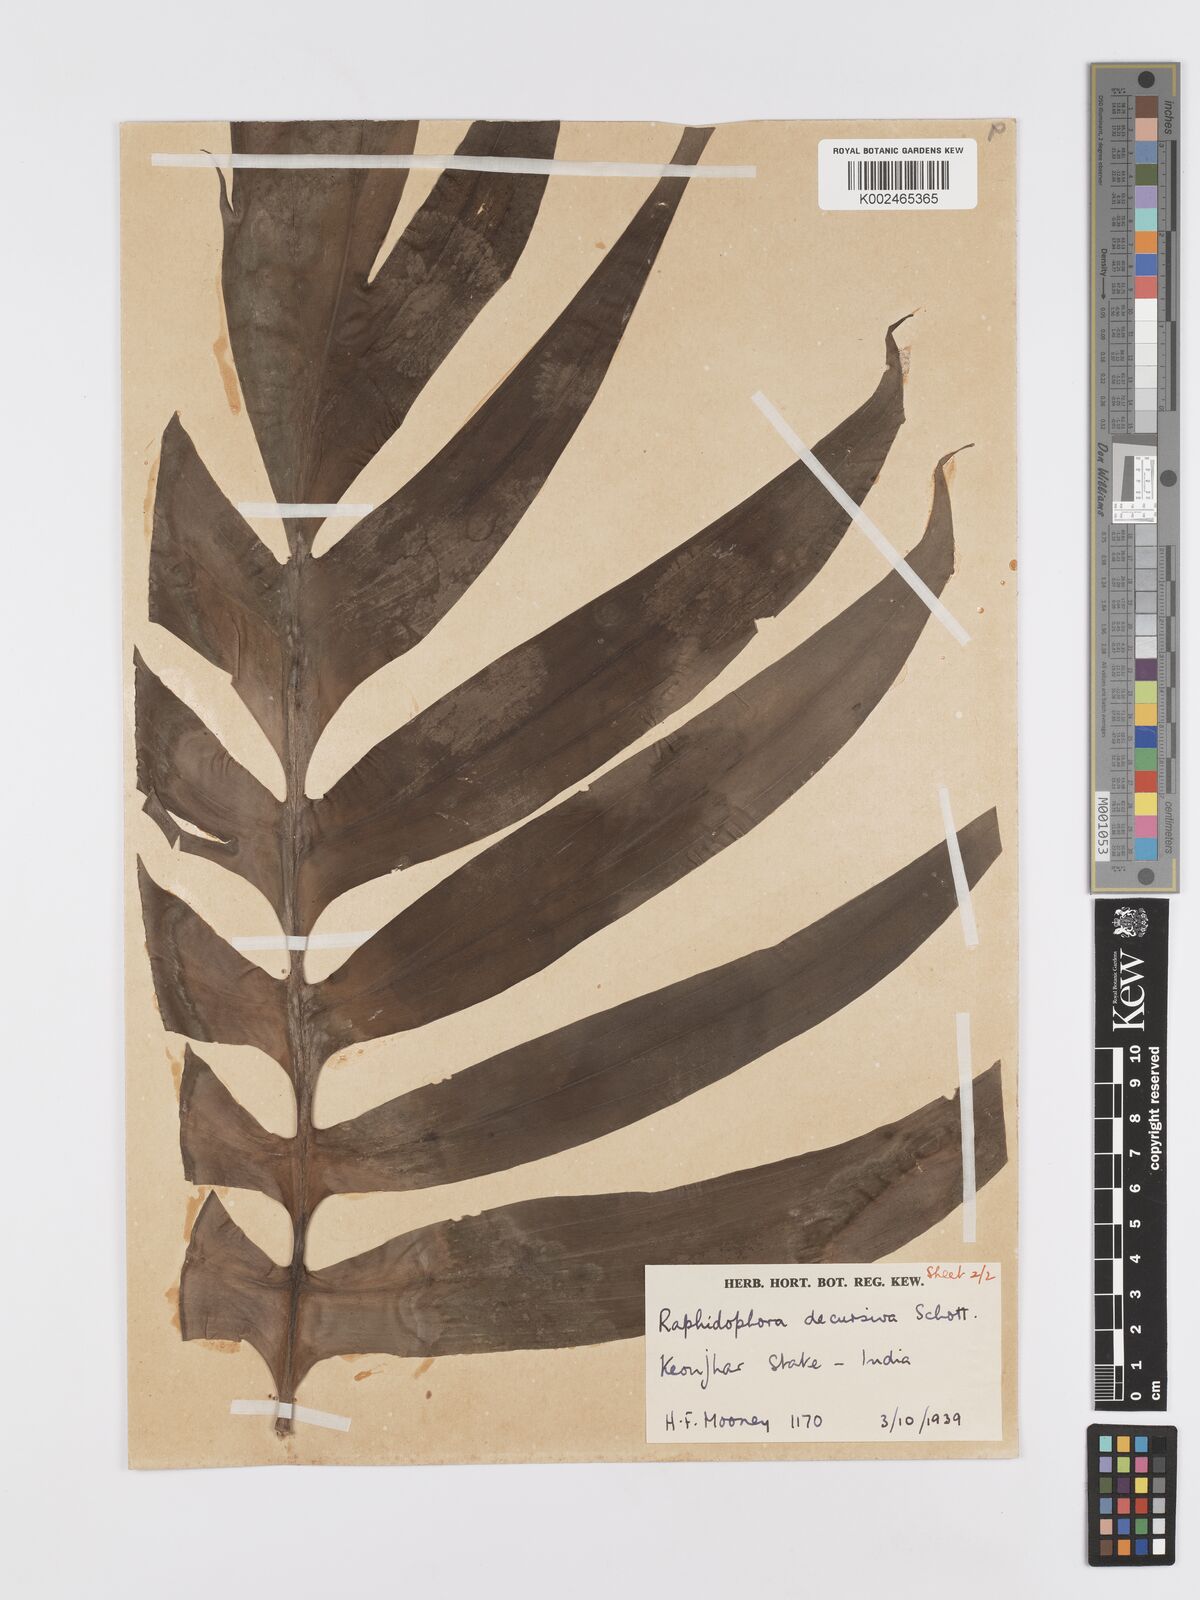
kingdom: Plantae
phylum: Tracheophyta
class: Liliopsida
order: Alismatales
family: Araceae
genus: Rhaphidophora
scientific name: Rhaphidophora decursiva
